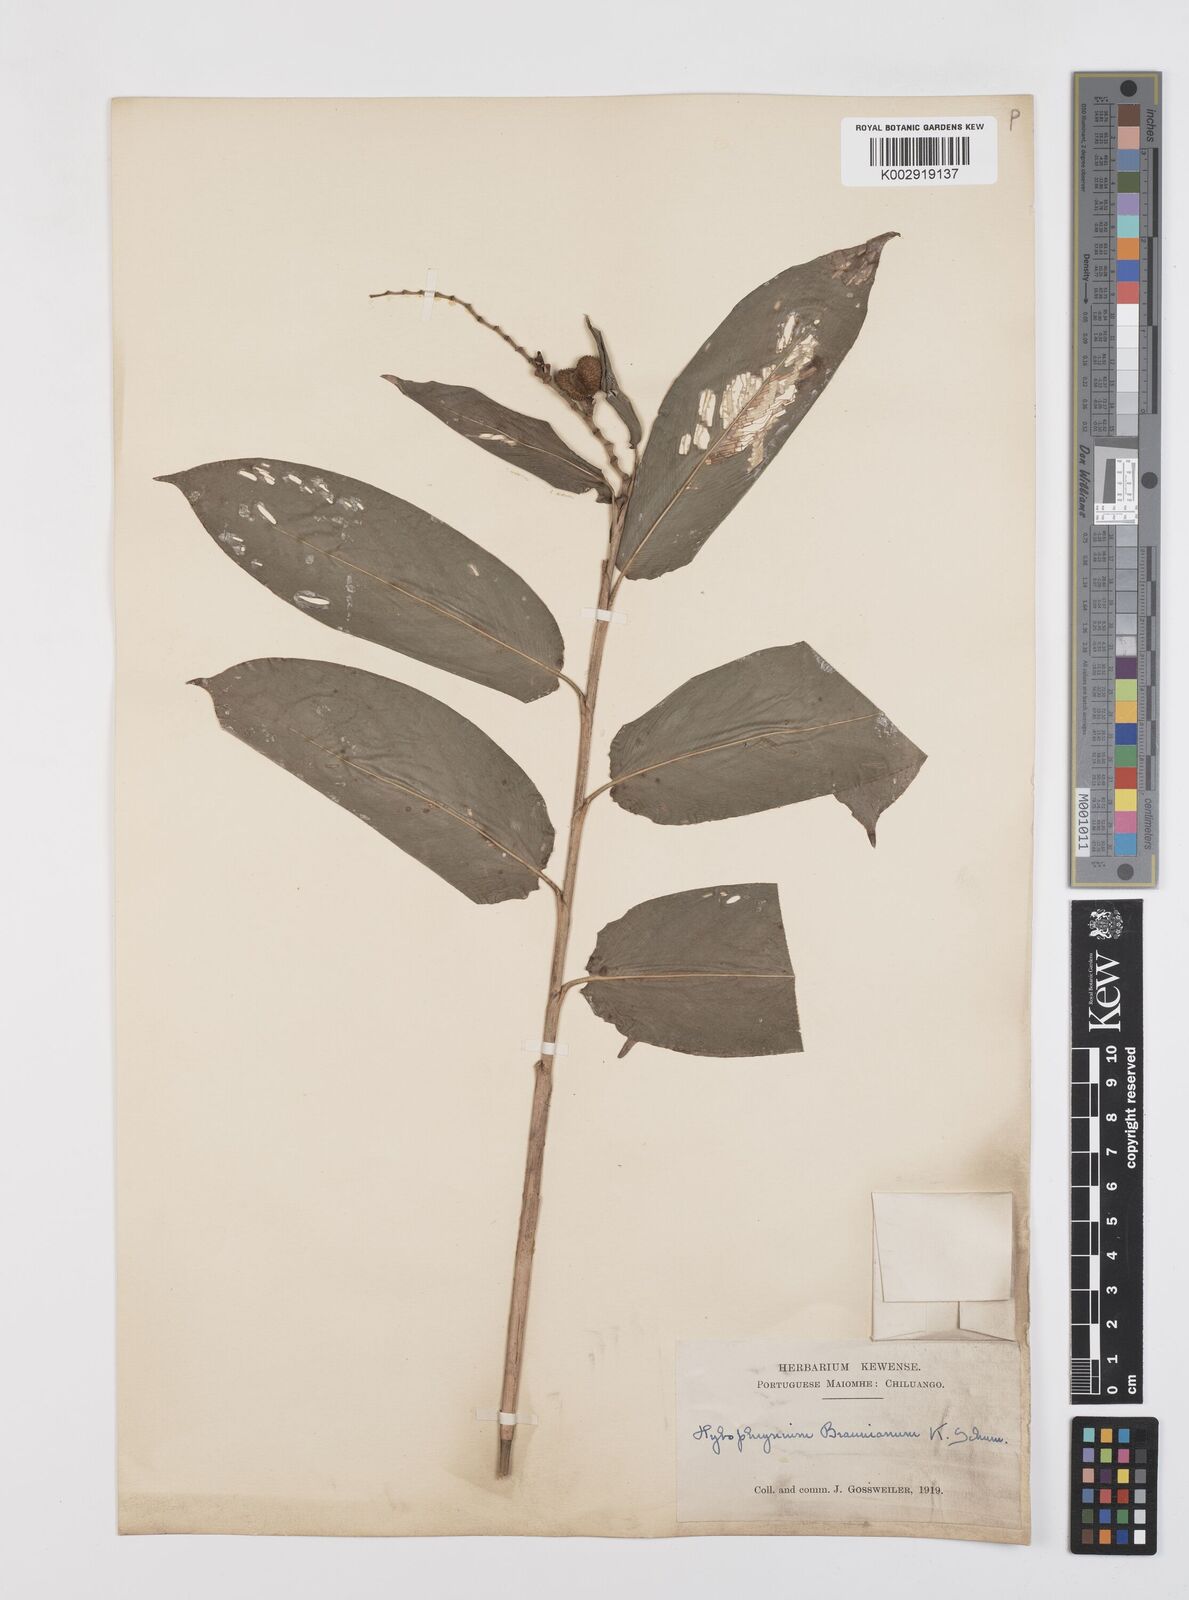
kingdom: Plantae
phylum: Tracheophyta
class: Liliopsida
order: Zingiberales
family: Marantaceae
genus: Trachyphrynium
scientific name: Trachyphrynium braunianum
